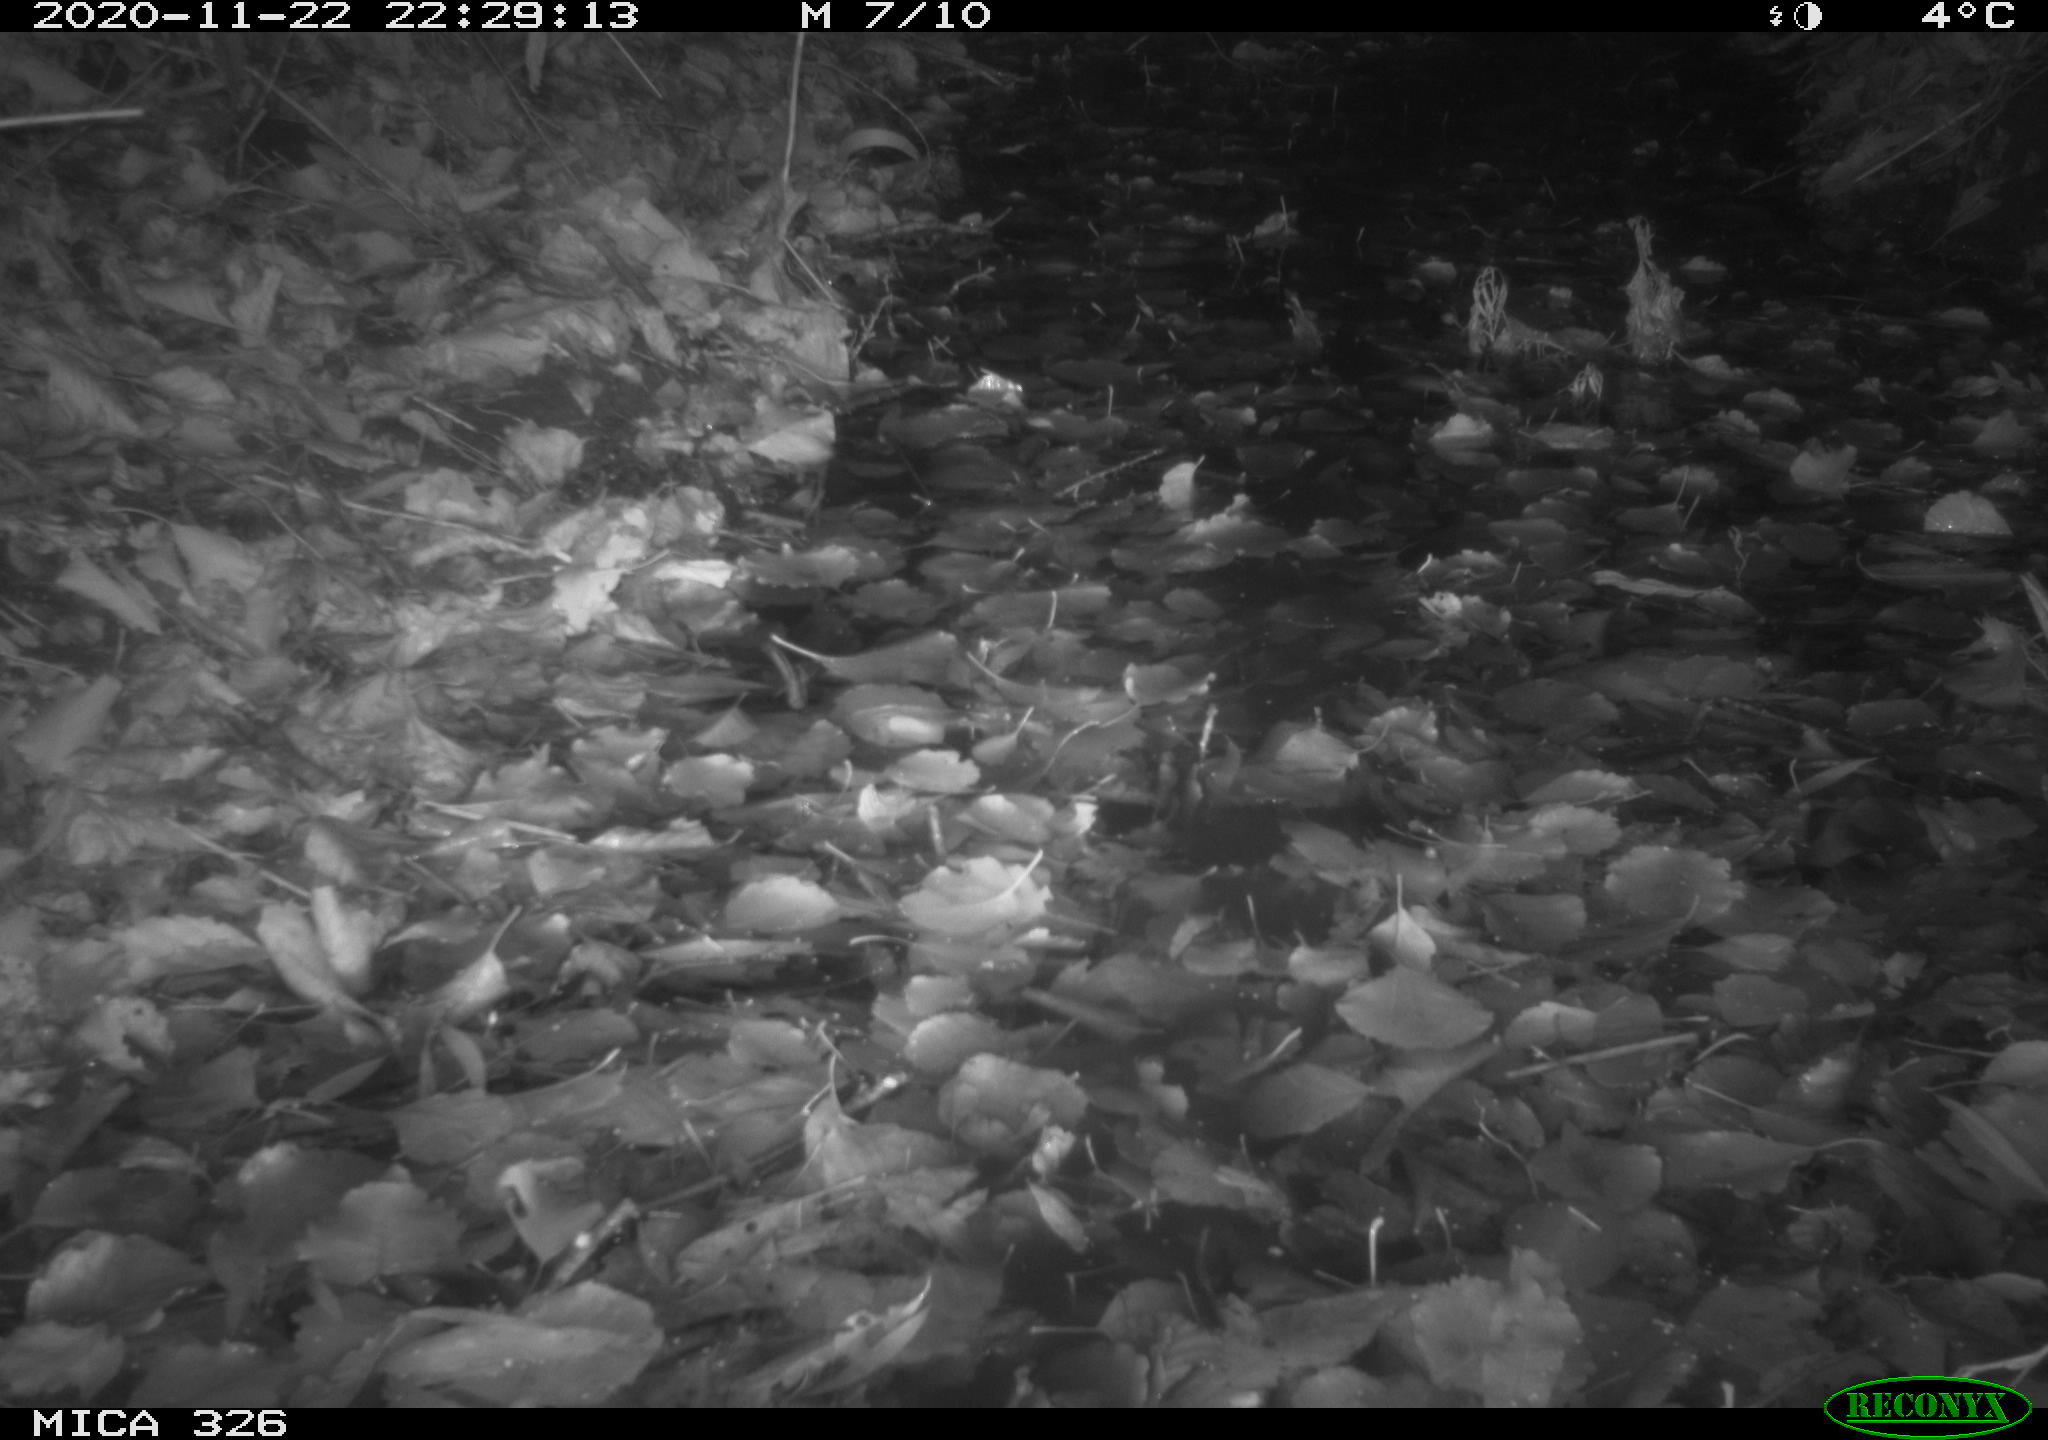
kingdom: Animalia
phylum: Chordata
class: Mammalia
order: Carnivora
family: Mustelidae
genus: Lutra
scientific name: Lutra lutra
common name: European otter
